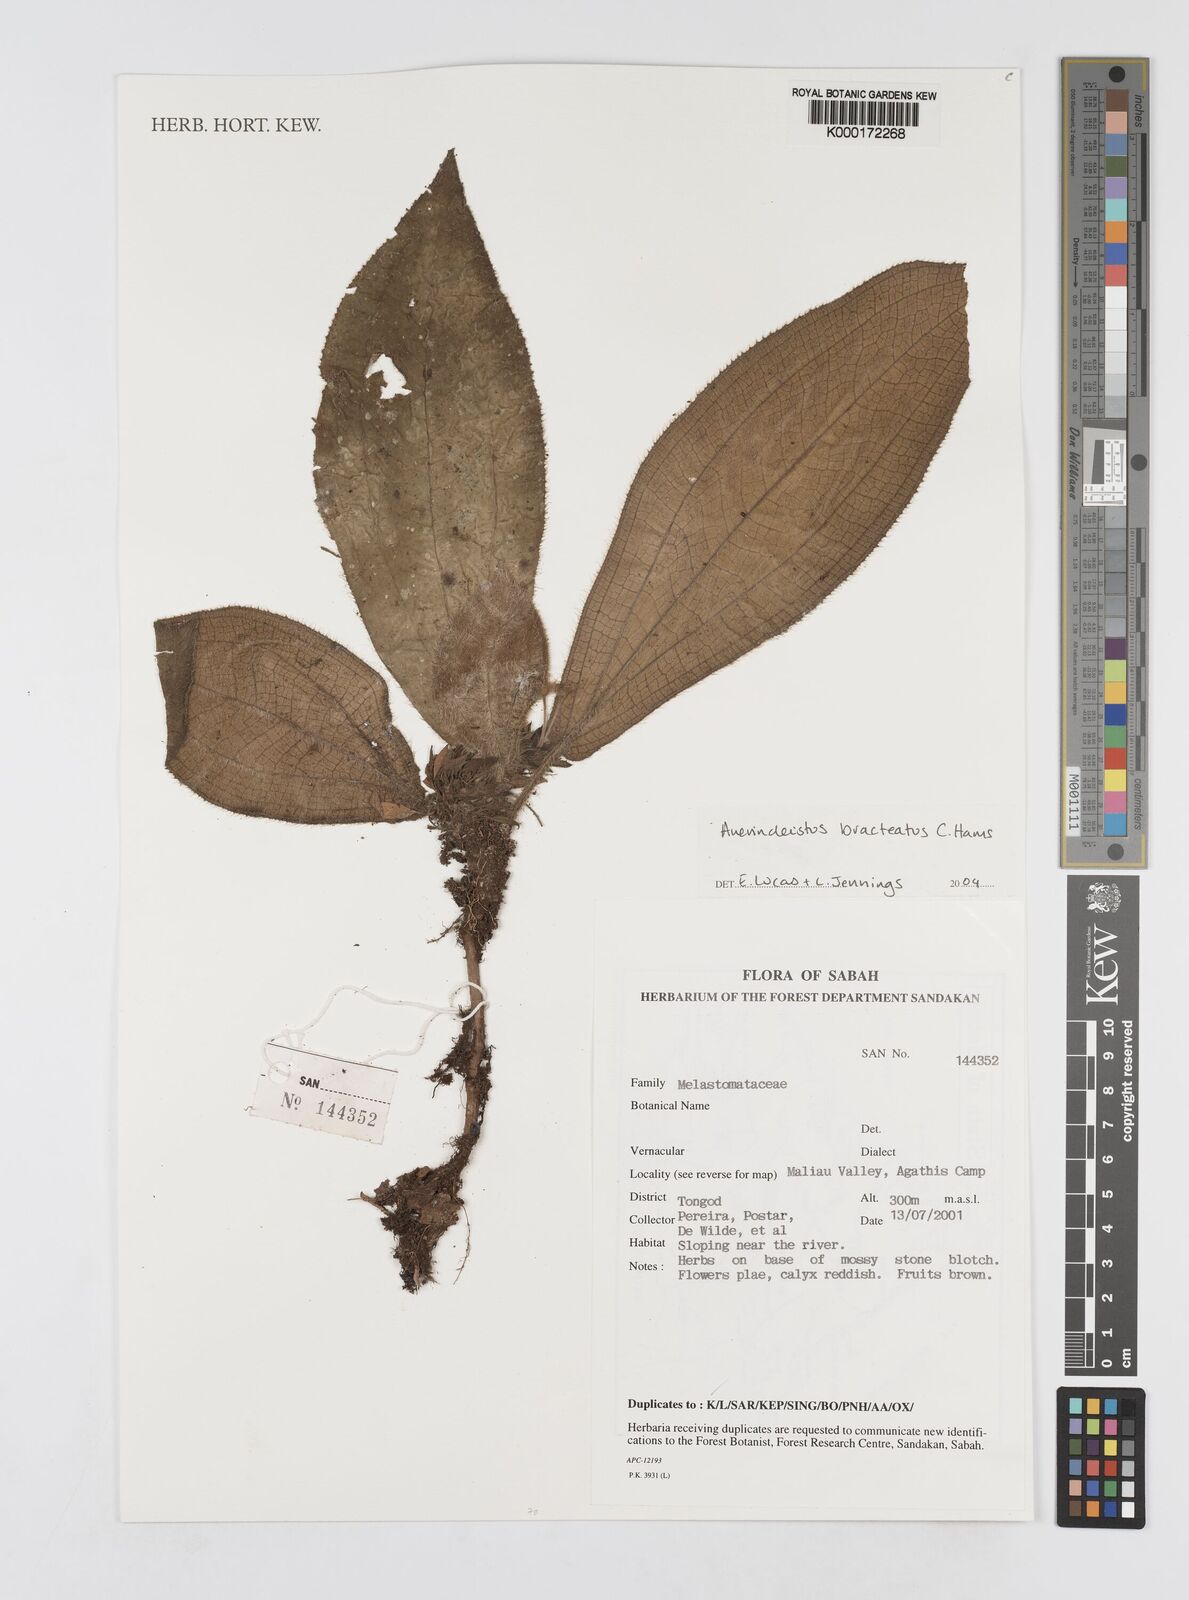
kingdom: Plantae
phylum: Tracheophyta
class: Magnoliopsida
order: Myrtales
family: Melastomataceae
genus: Anerincleistus
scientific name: Anerincleistus bracteatus
